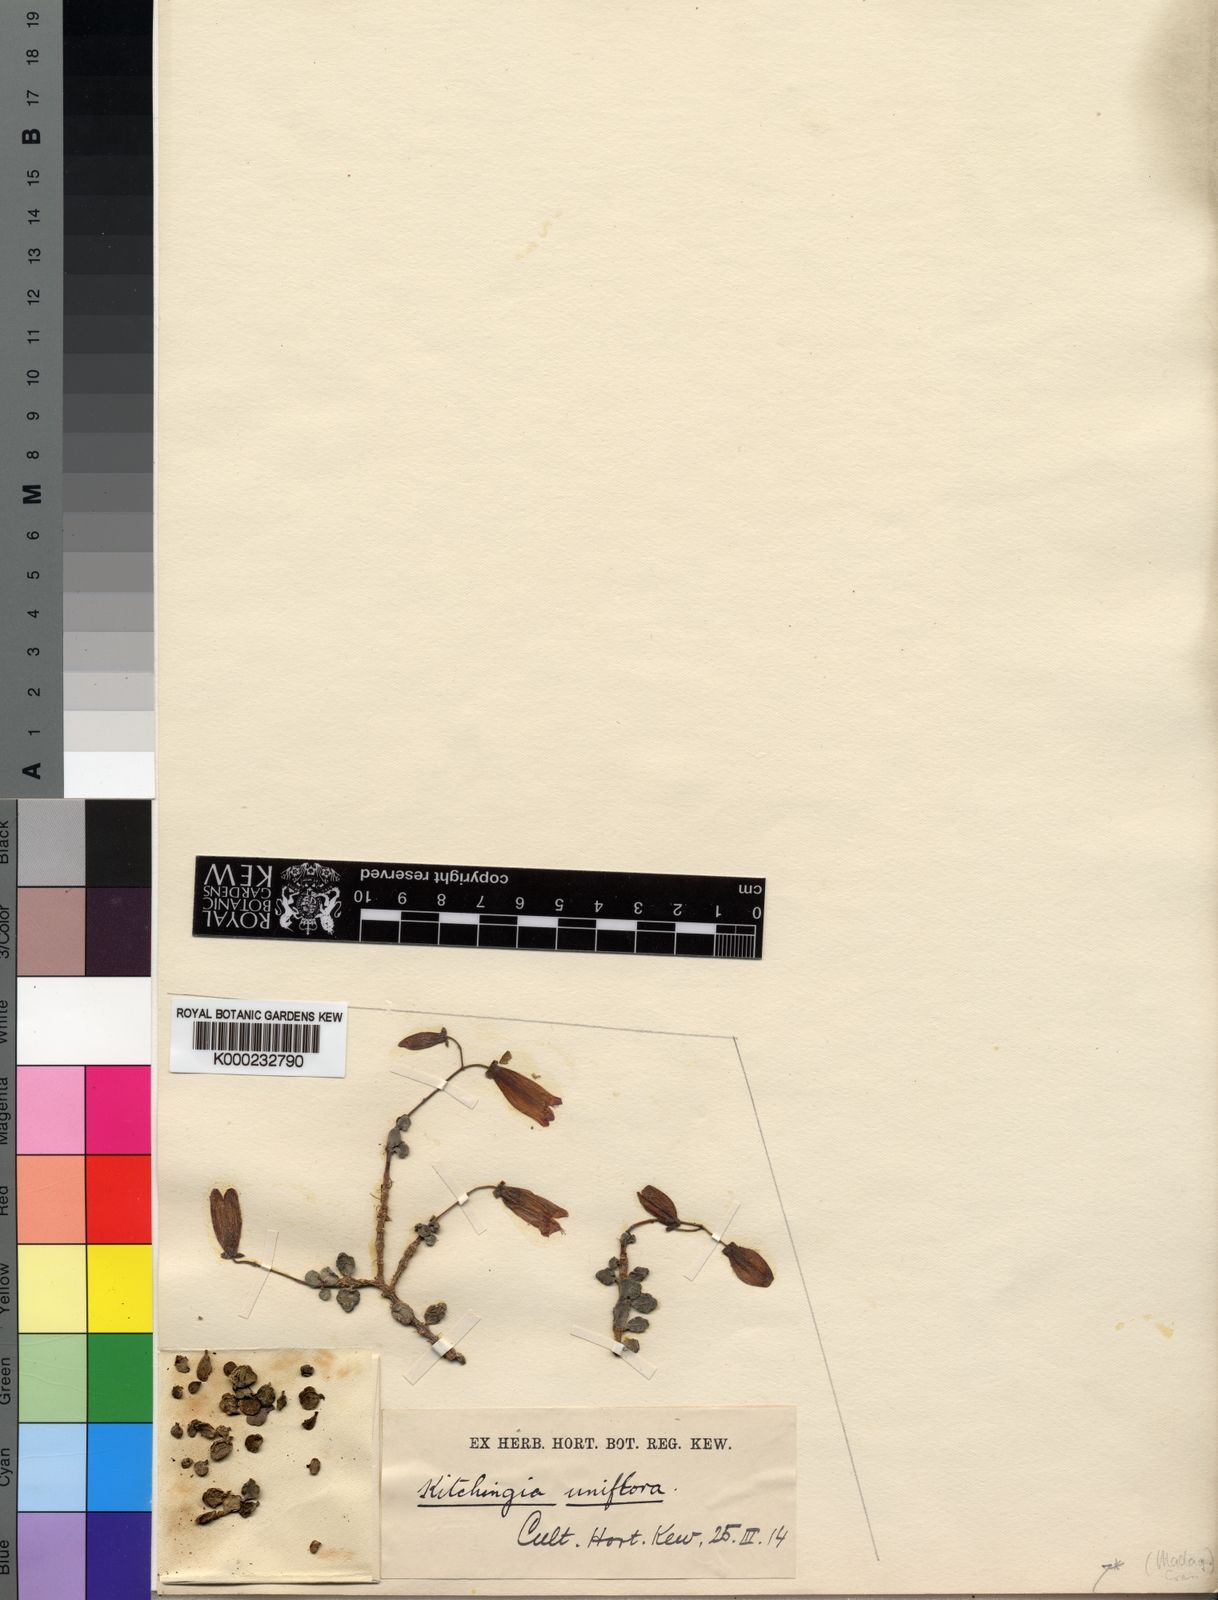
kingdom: Plantae
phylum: Tracheophyta
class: Magnoliopsida
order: Saxifragales
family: Crassulaceae
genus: Kalanchoe
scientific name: Kalanchoe uniflora
